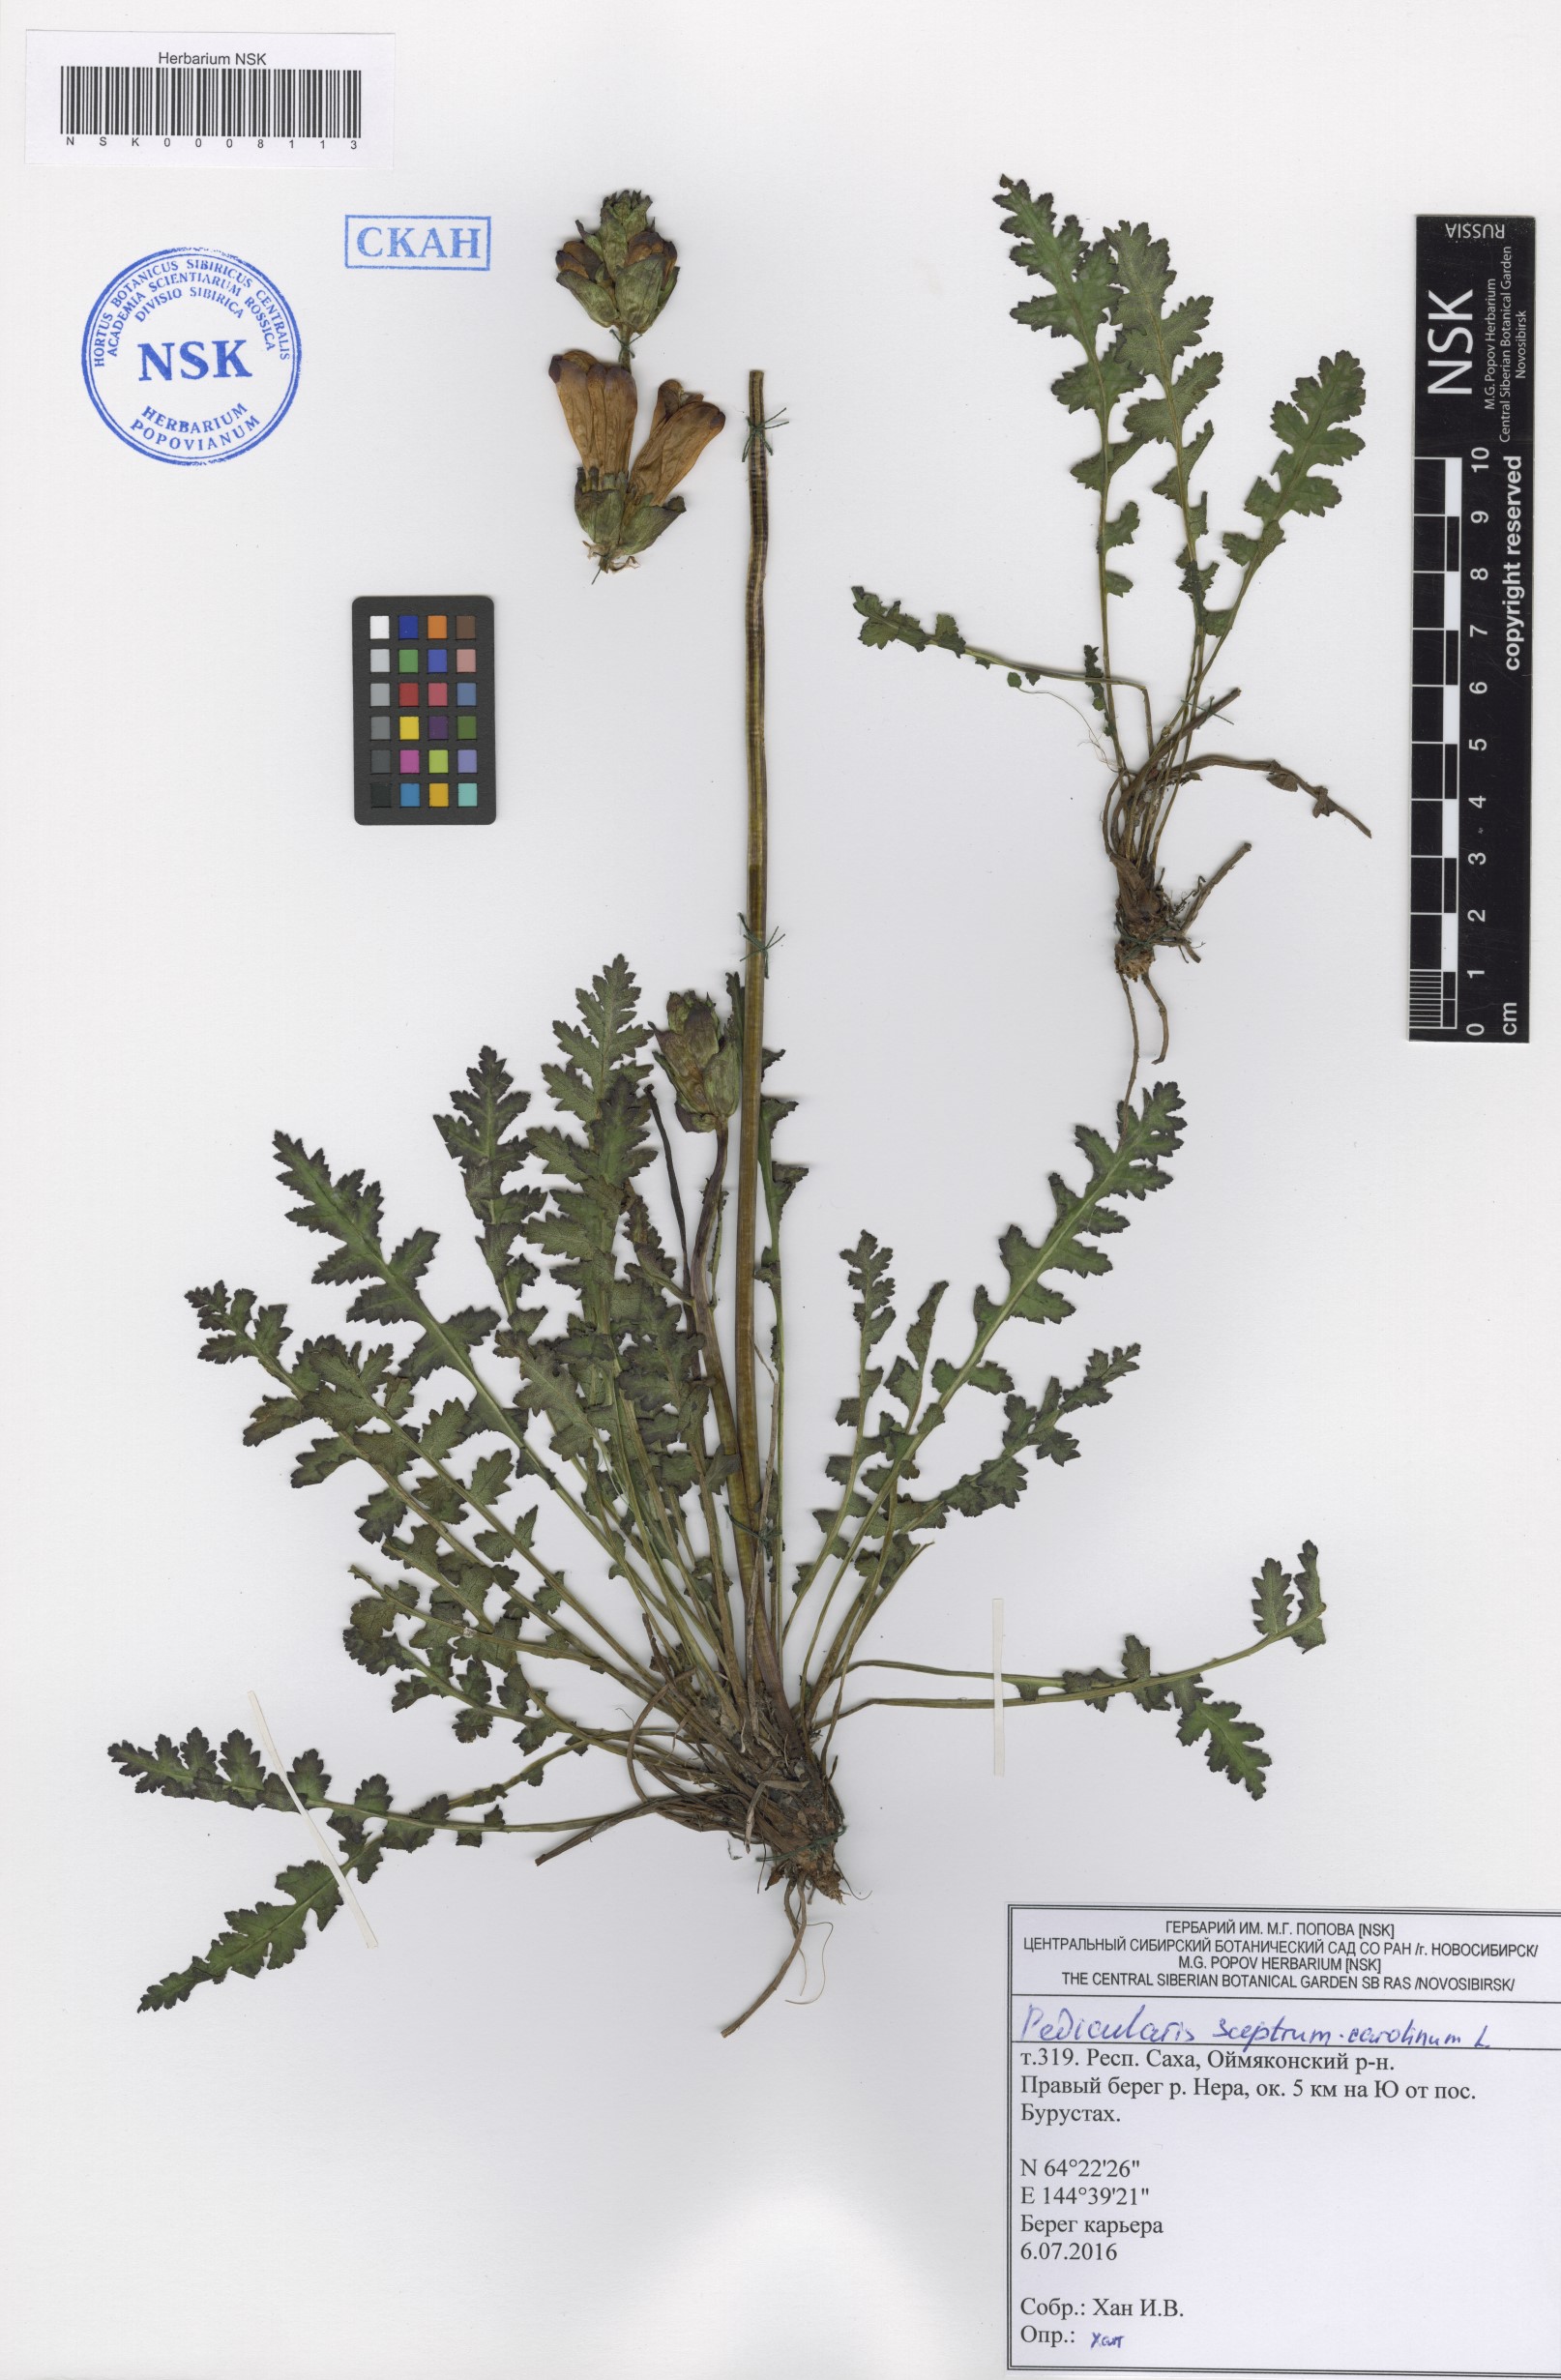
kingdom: Plantae
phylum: Tracheophyta
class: Magnoliopsida
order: Lamiales
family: Orobanchaceae
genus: Pedicularis
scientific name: Pedicularis sceptrum-carolinum
